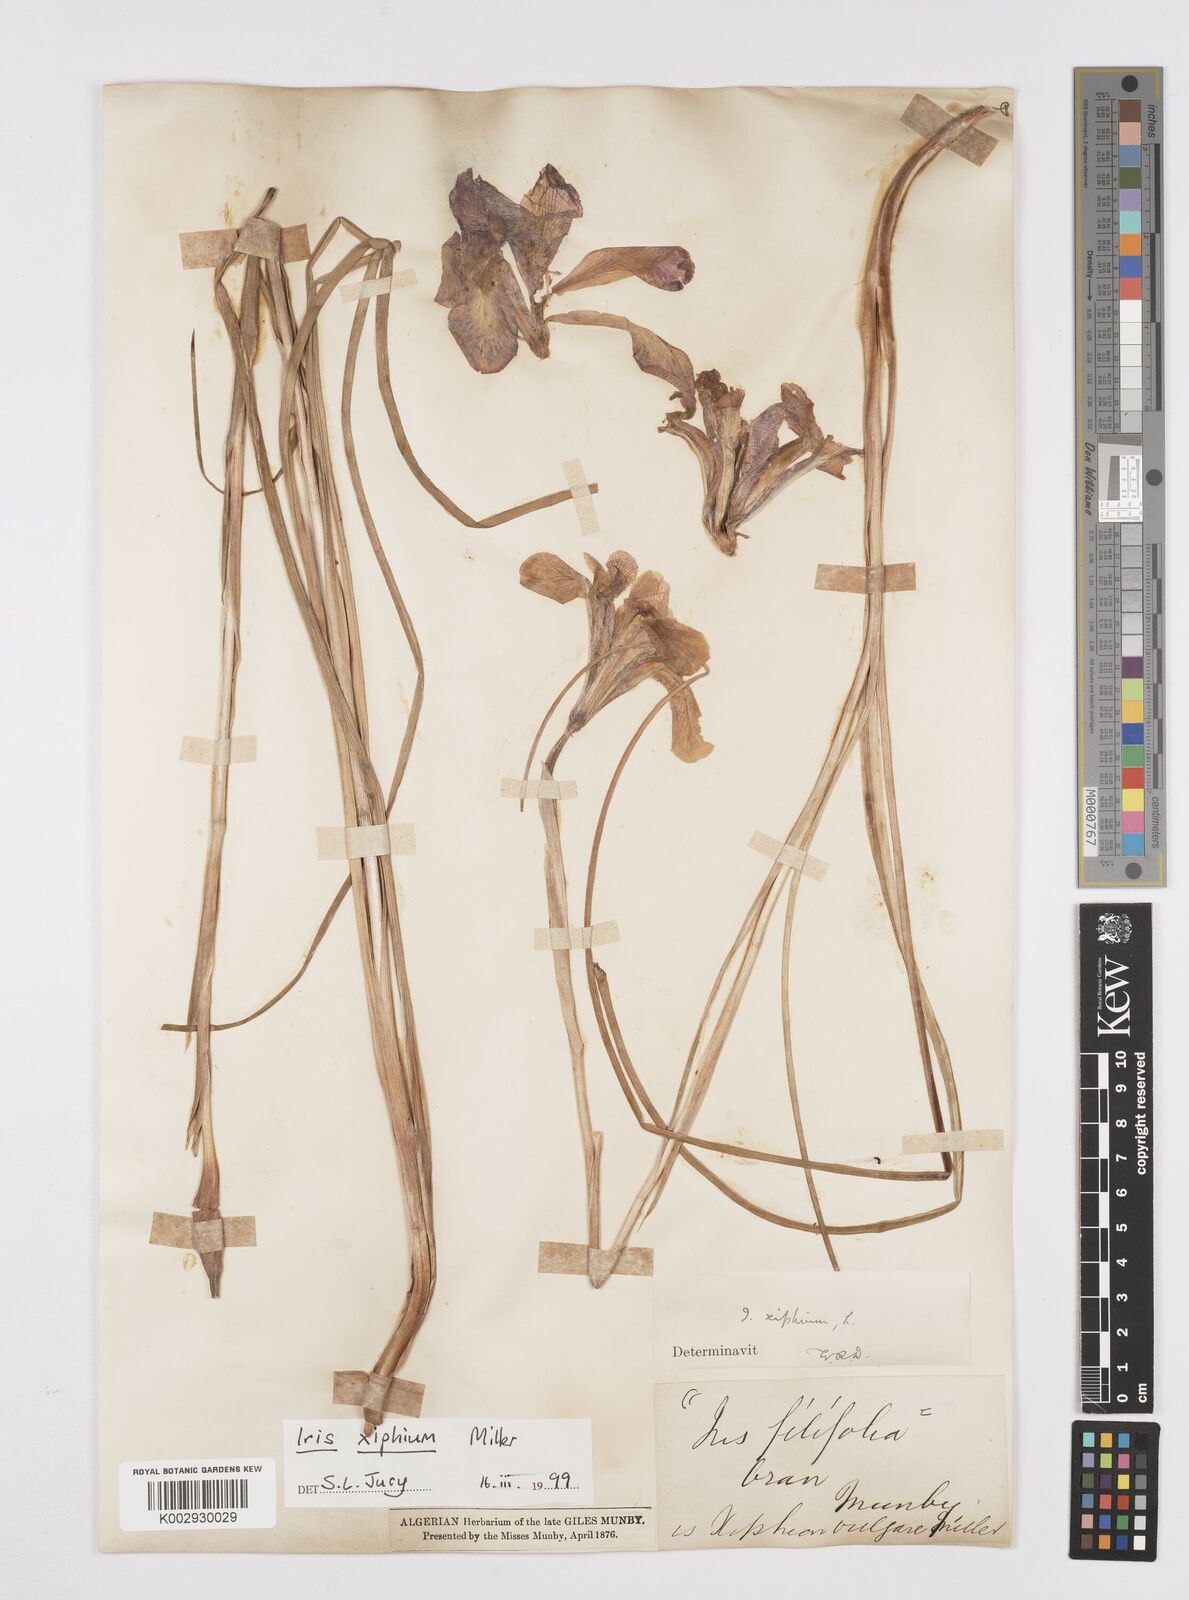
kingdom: Plantae
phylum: Tracheophyta
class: Liliopsida
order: Asparagales
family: Iridaceae
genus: Iris
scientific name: Iris xiphium
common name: Spanish iris
